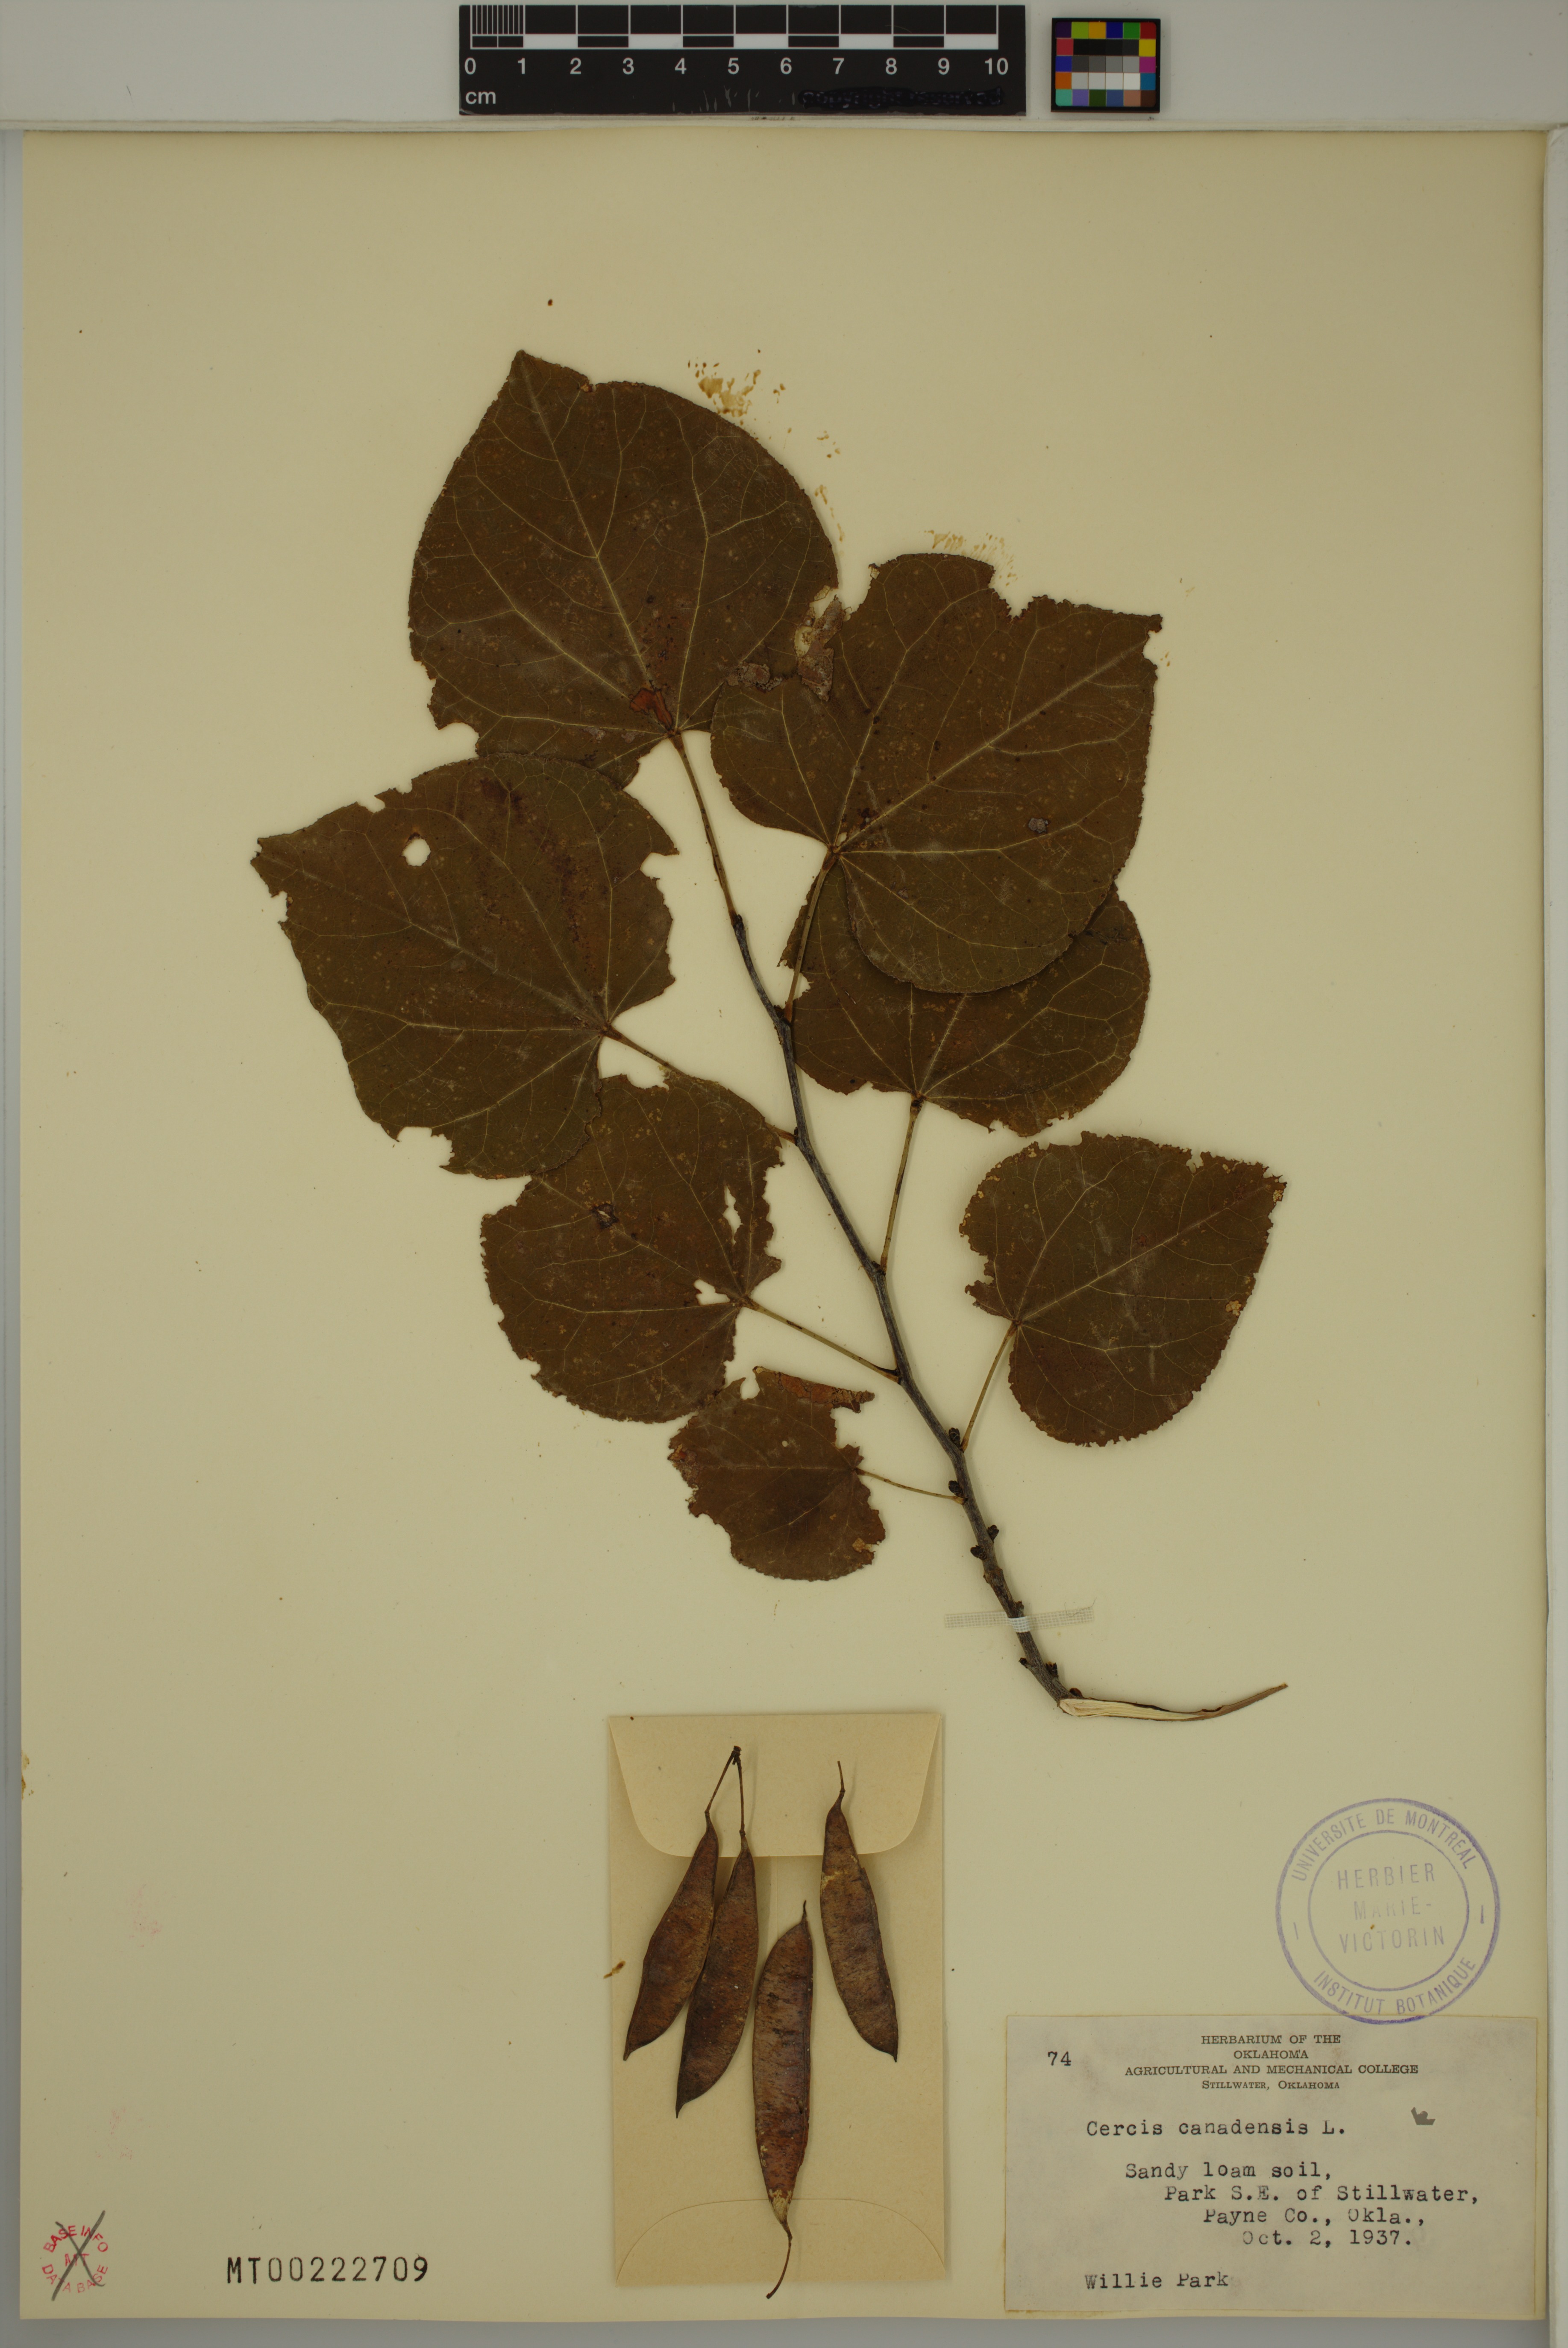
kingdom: Plantae
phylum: Tracheophyta
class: Magnoliopsida
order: Fabales
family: Fabaceae
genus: Cercis
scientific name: Cercis canadensis
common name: Eastern redbud
